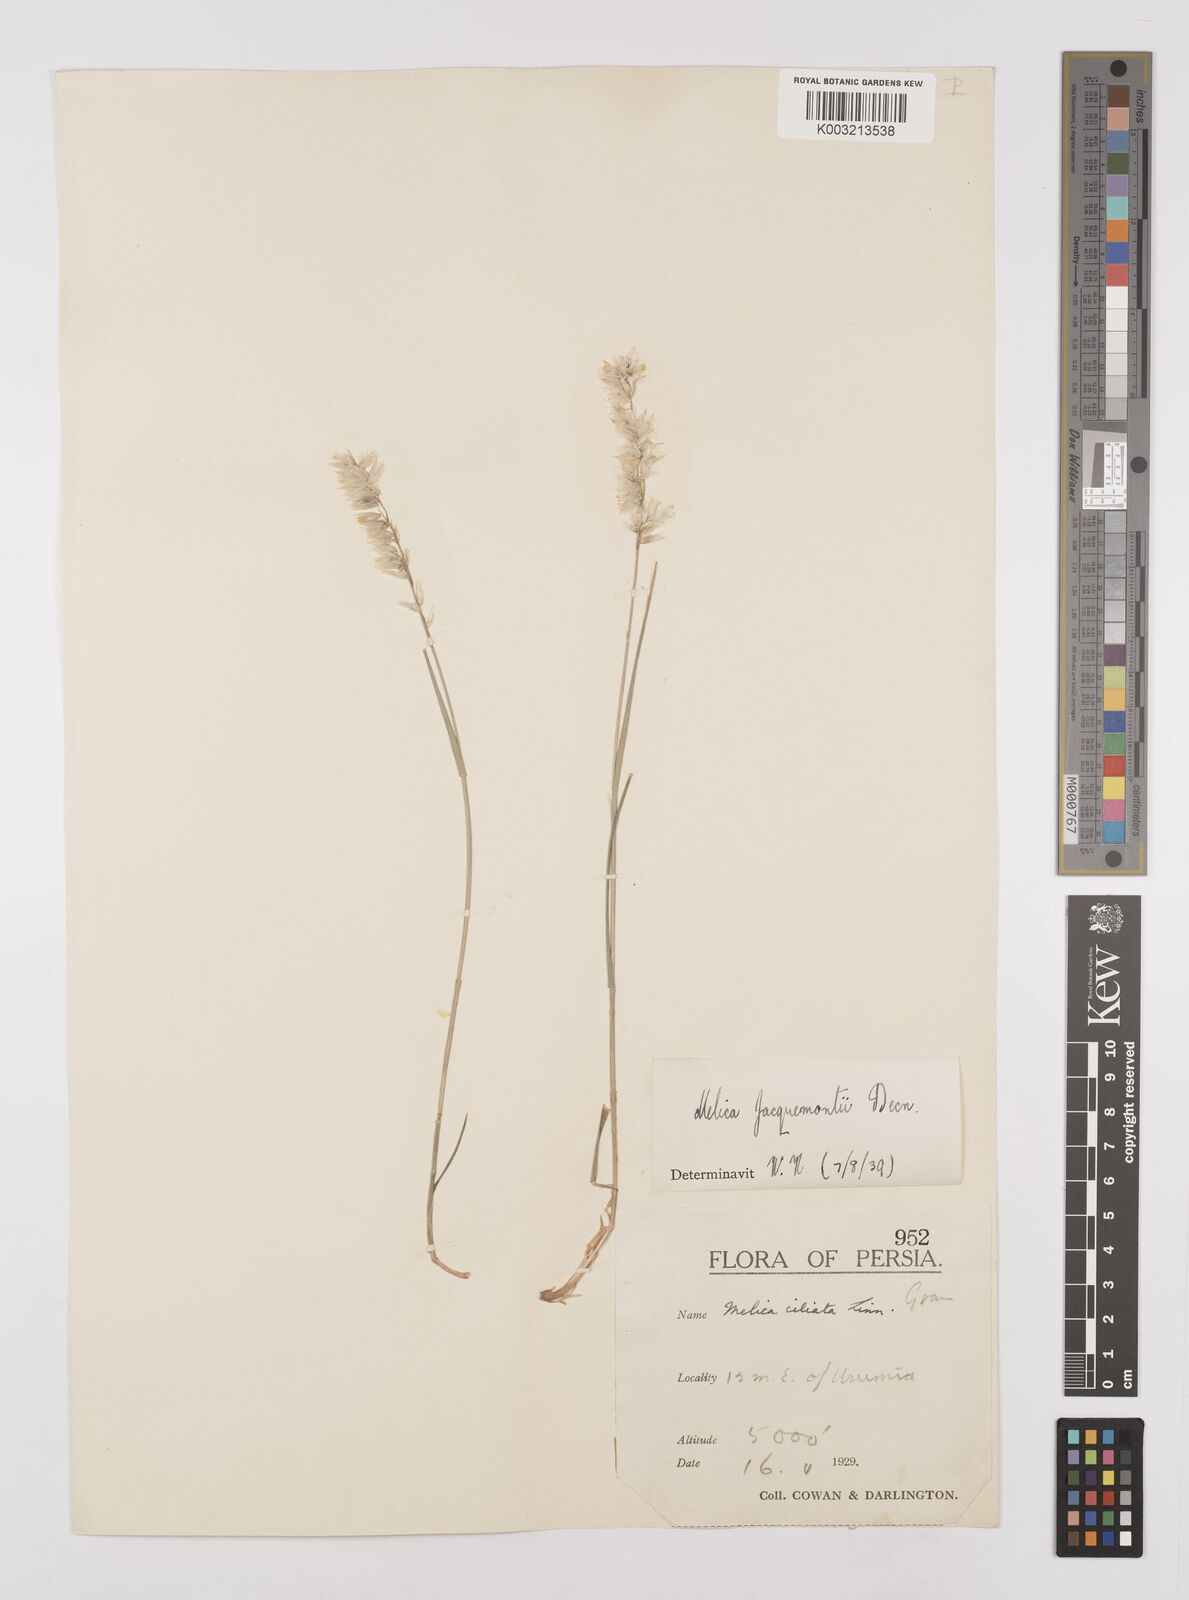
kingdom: Plantae
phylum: Tracheophyta
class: Liliopsida
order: Poales
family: Poaceae
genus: Melica
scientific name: Melica persica
